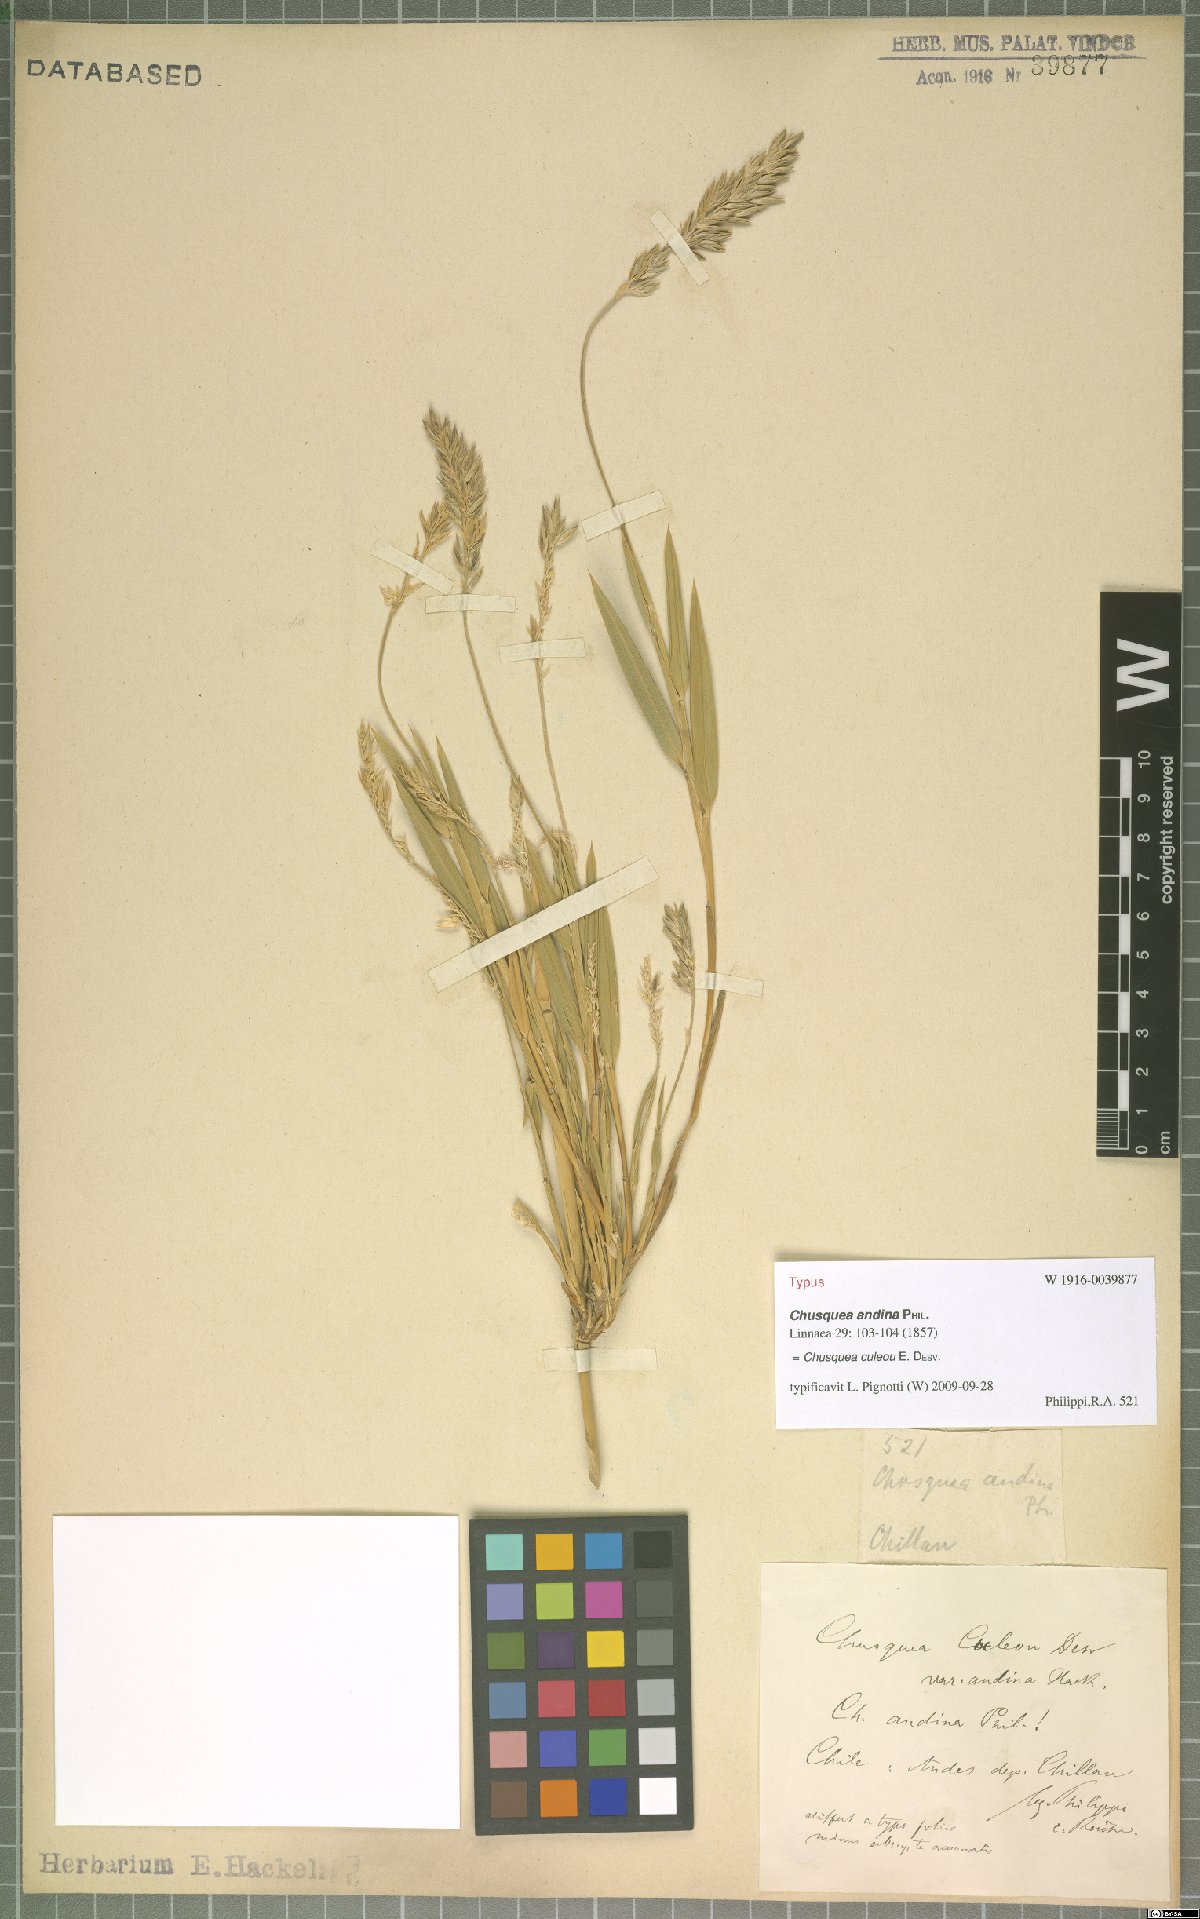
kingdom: Plantae
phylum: Tracheophyta
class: Liliopsida
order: Poales
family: Poaceae
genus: Chusquea
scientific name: Chusquea culeou
